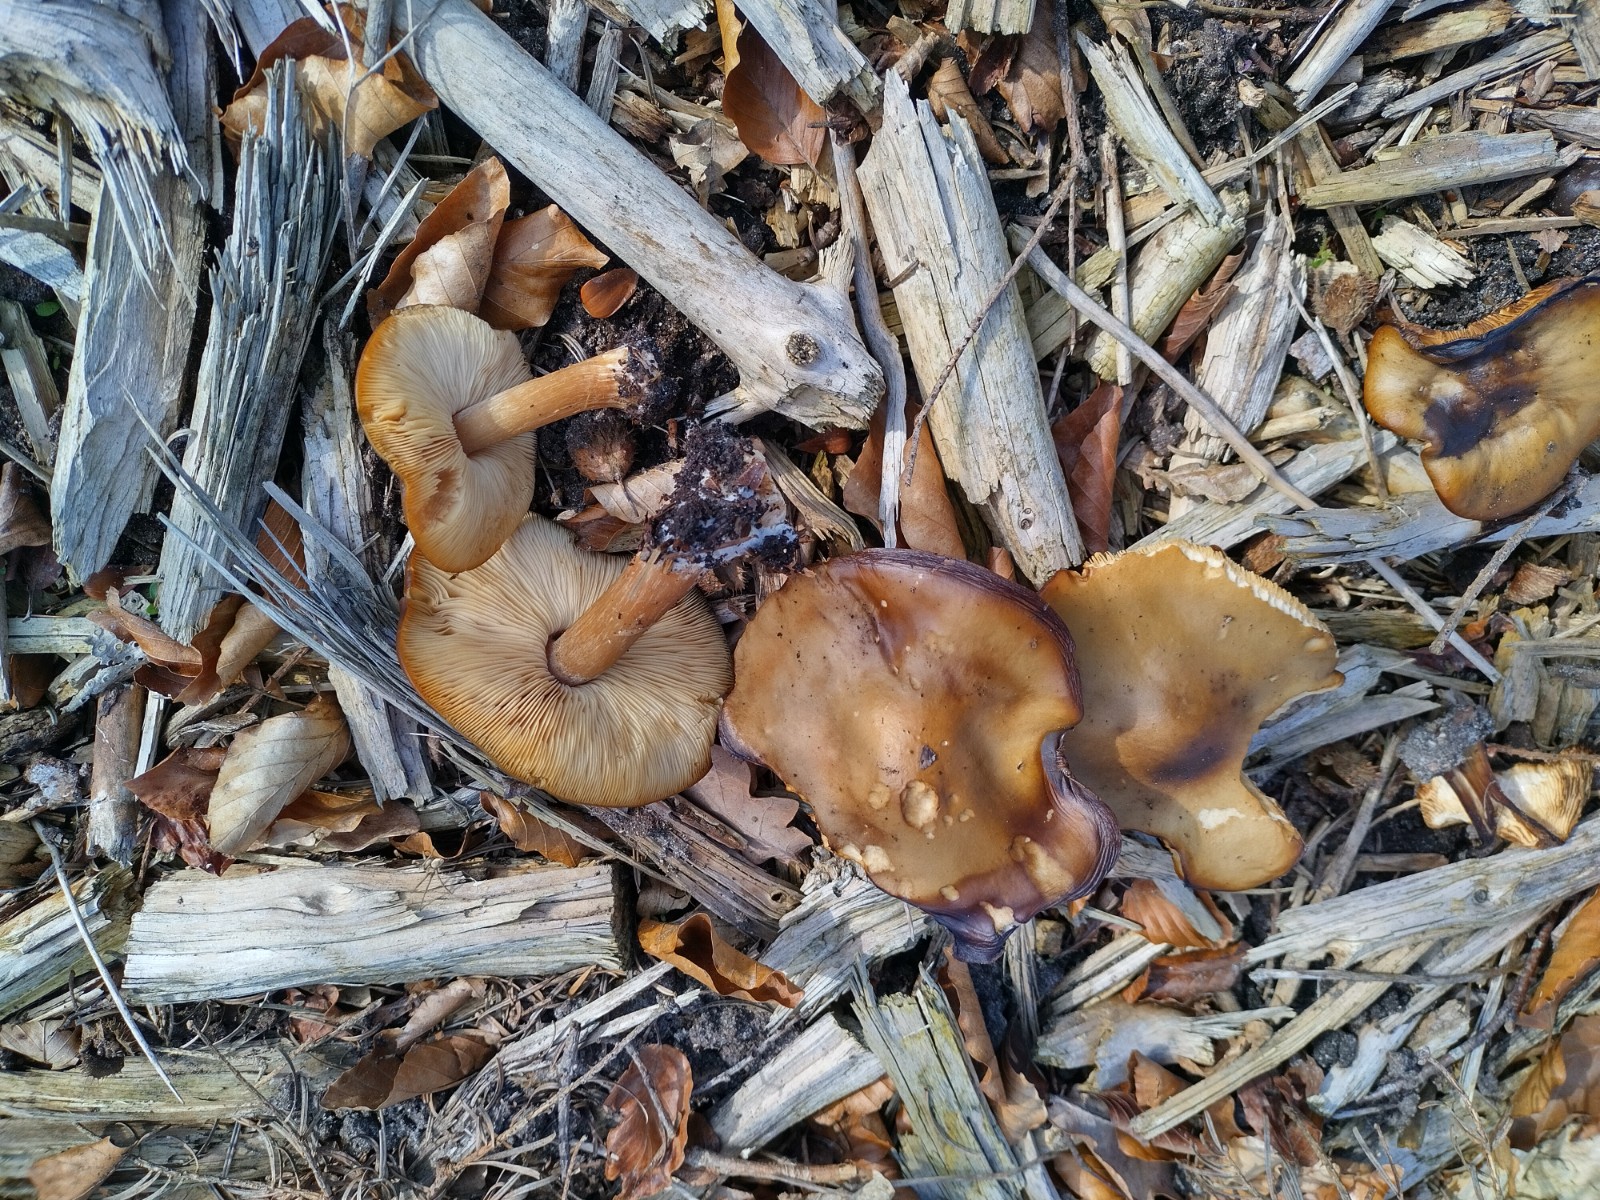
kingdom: Fungi
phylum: Basidiomycota
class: Agaricomycetes
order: Agaricales
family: Tricholomataceae
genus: Melanoleuca
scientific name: Melanoleuca cognata
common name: gyldengrå munkehat
